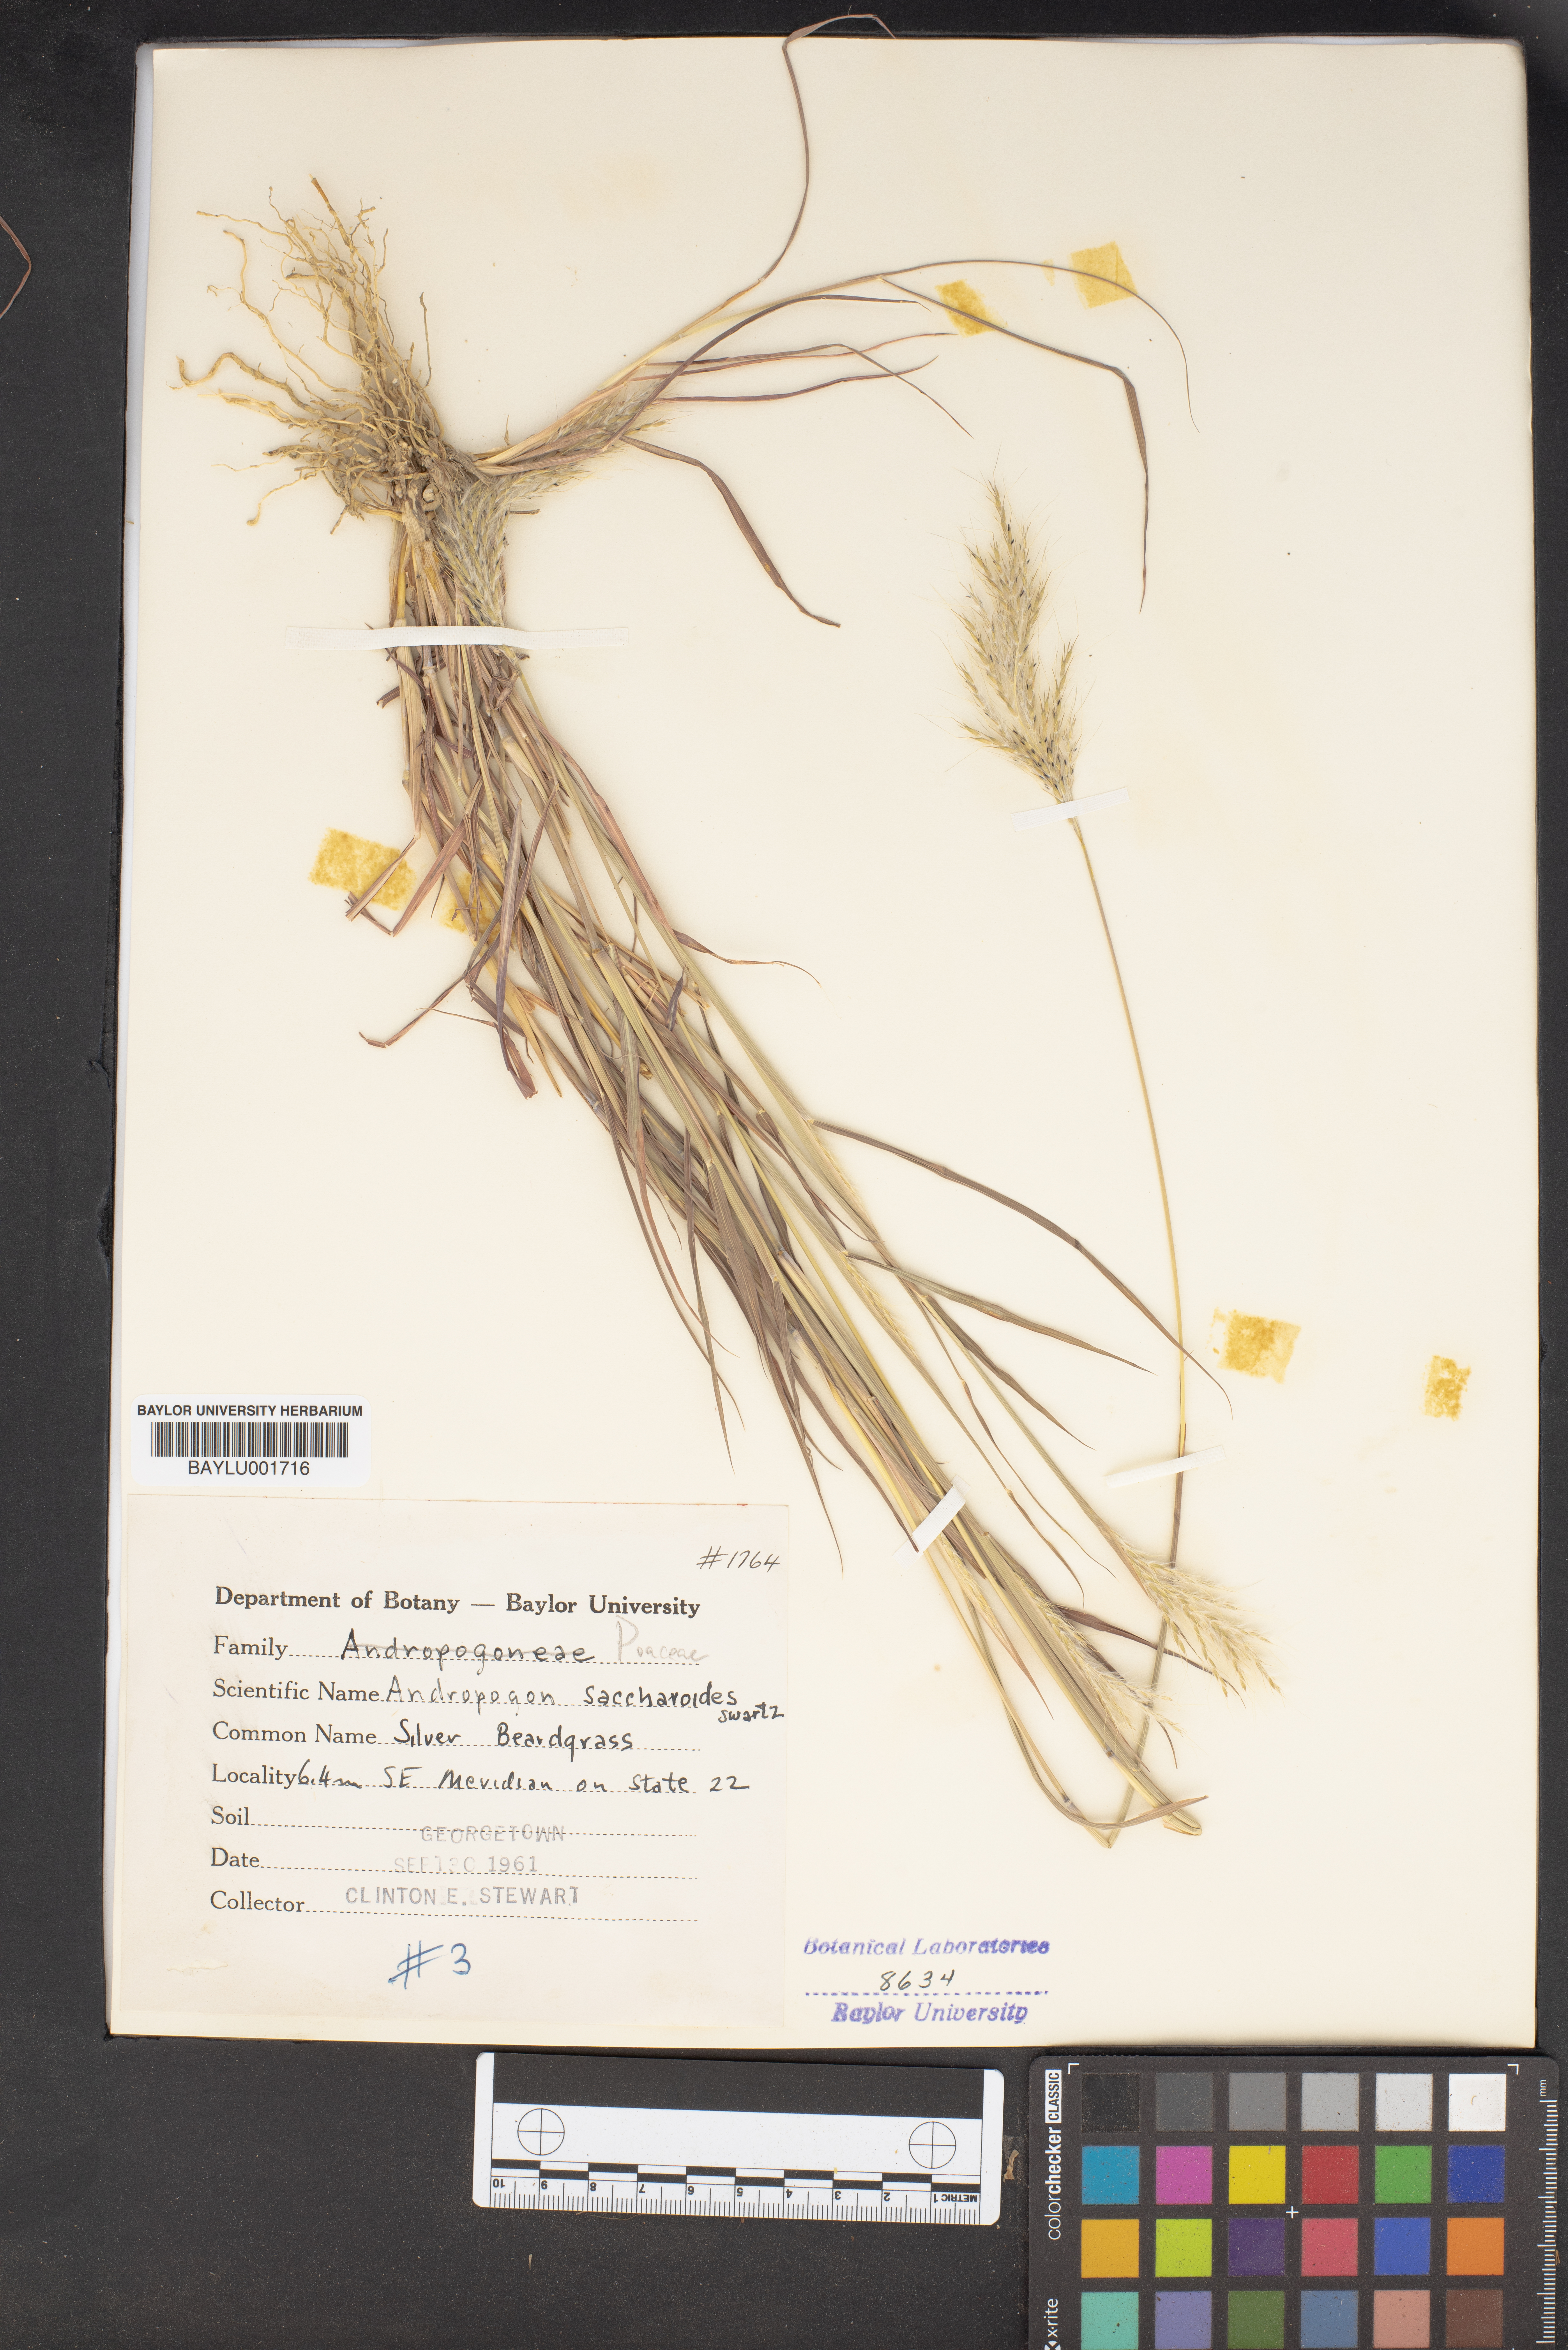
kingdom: Plantae
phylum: Tracheophyta
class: Liliopsida
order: Poales
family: Poaceae
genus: Bothriochloa
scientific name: Bothriochloa saccharoides
